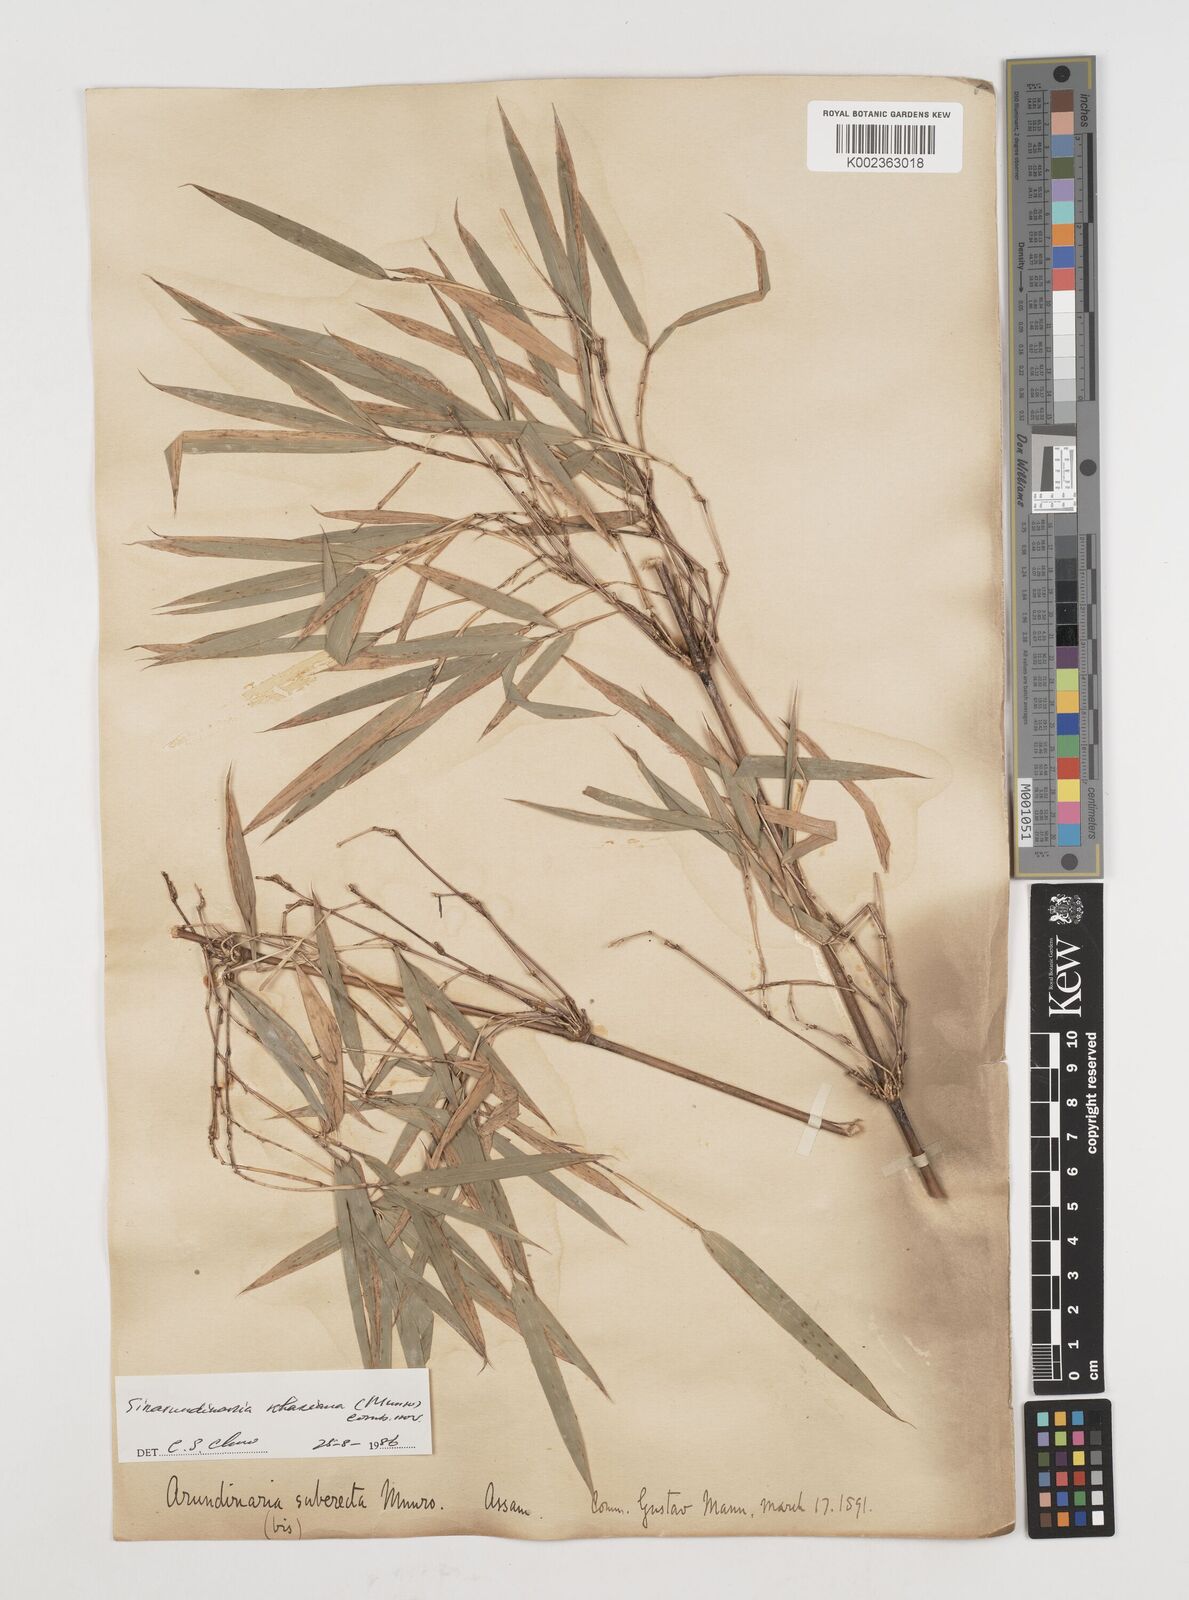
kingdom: Plantae
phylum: Tracheophyta
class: Liliopsida
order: Poales
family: Poaceae
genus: Drepanostachyum
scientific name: Drepanostachyum khasianum
